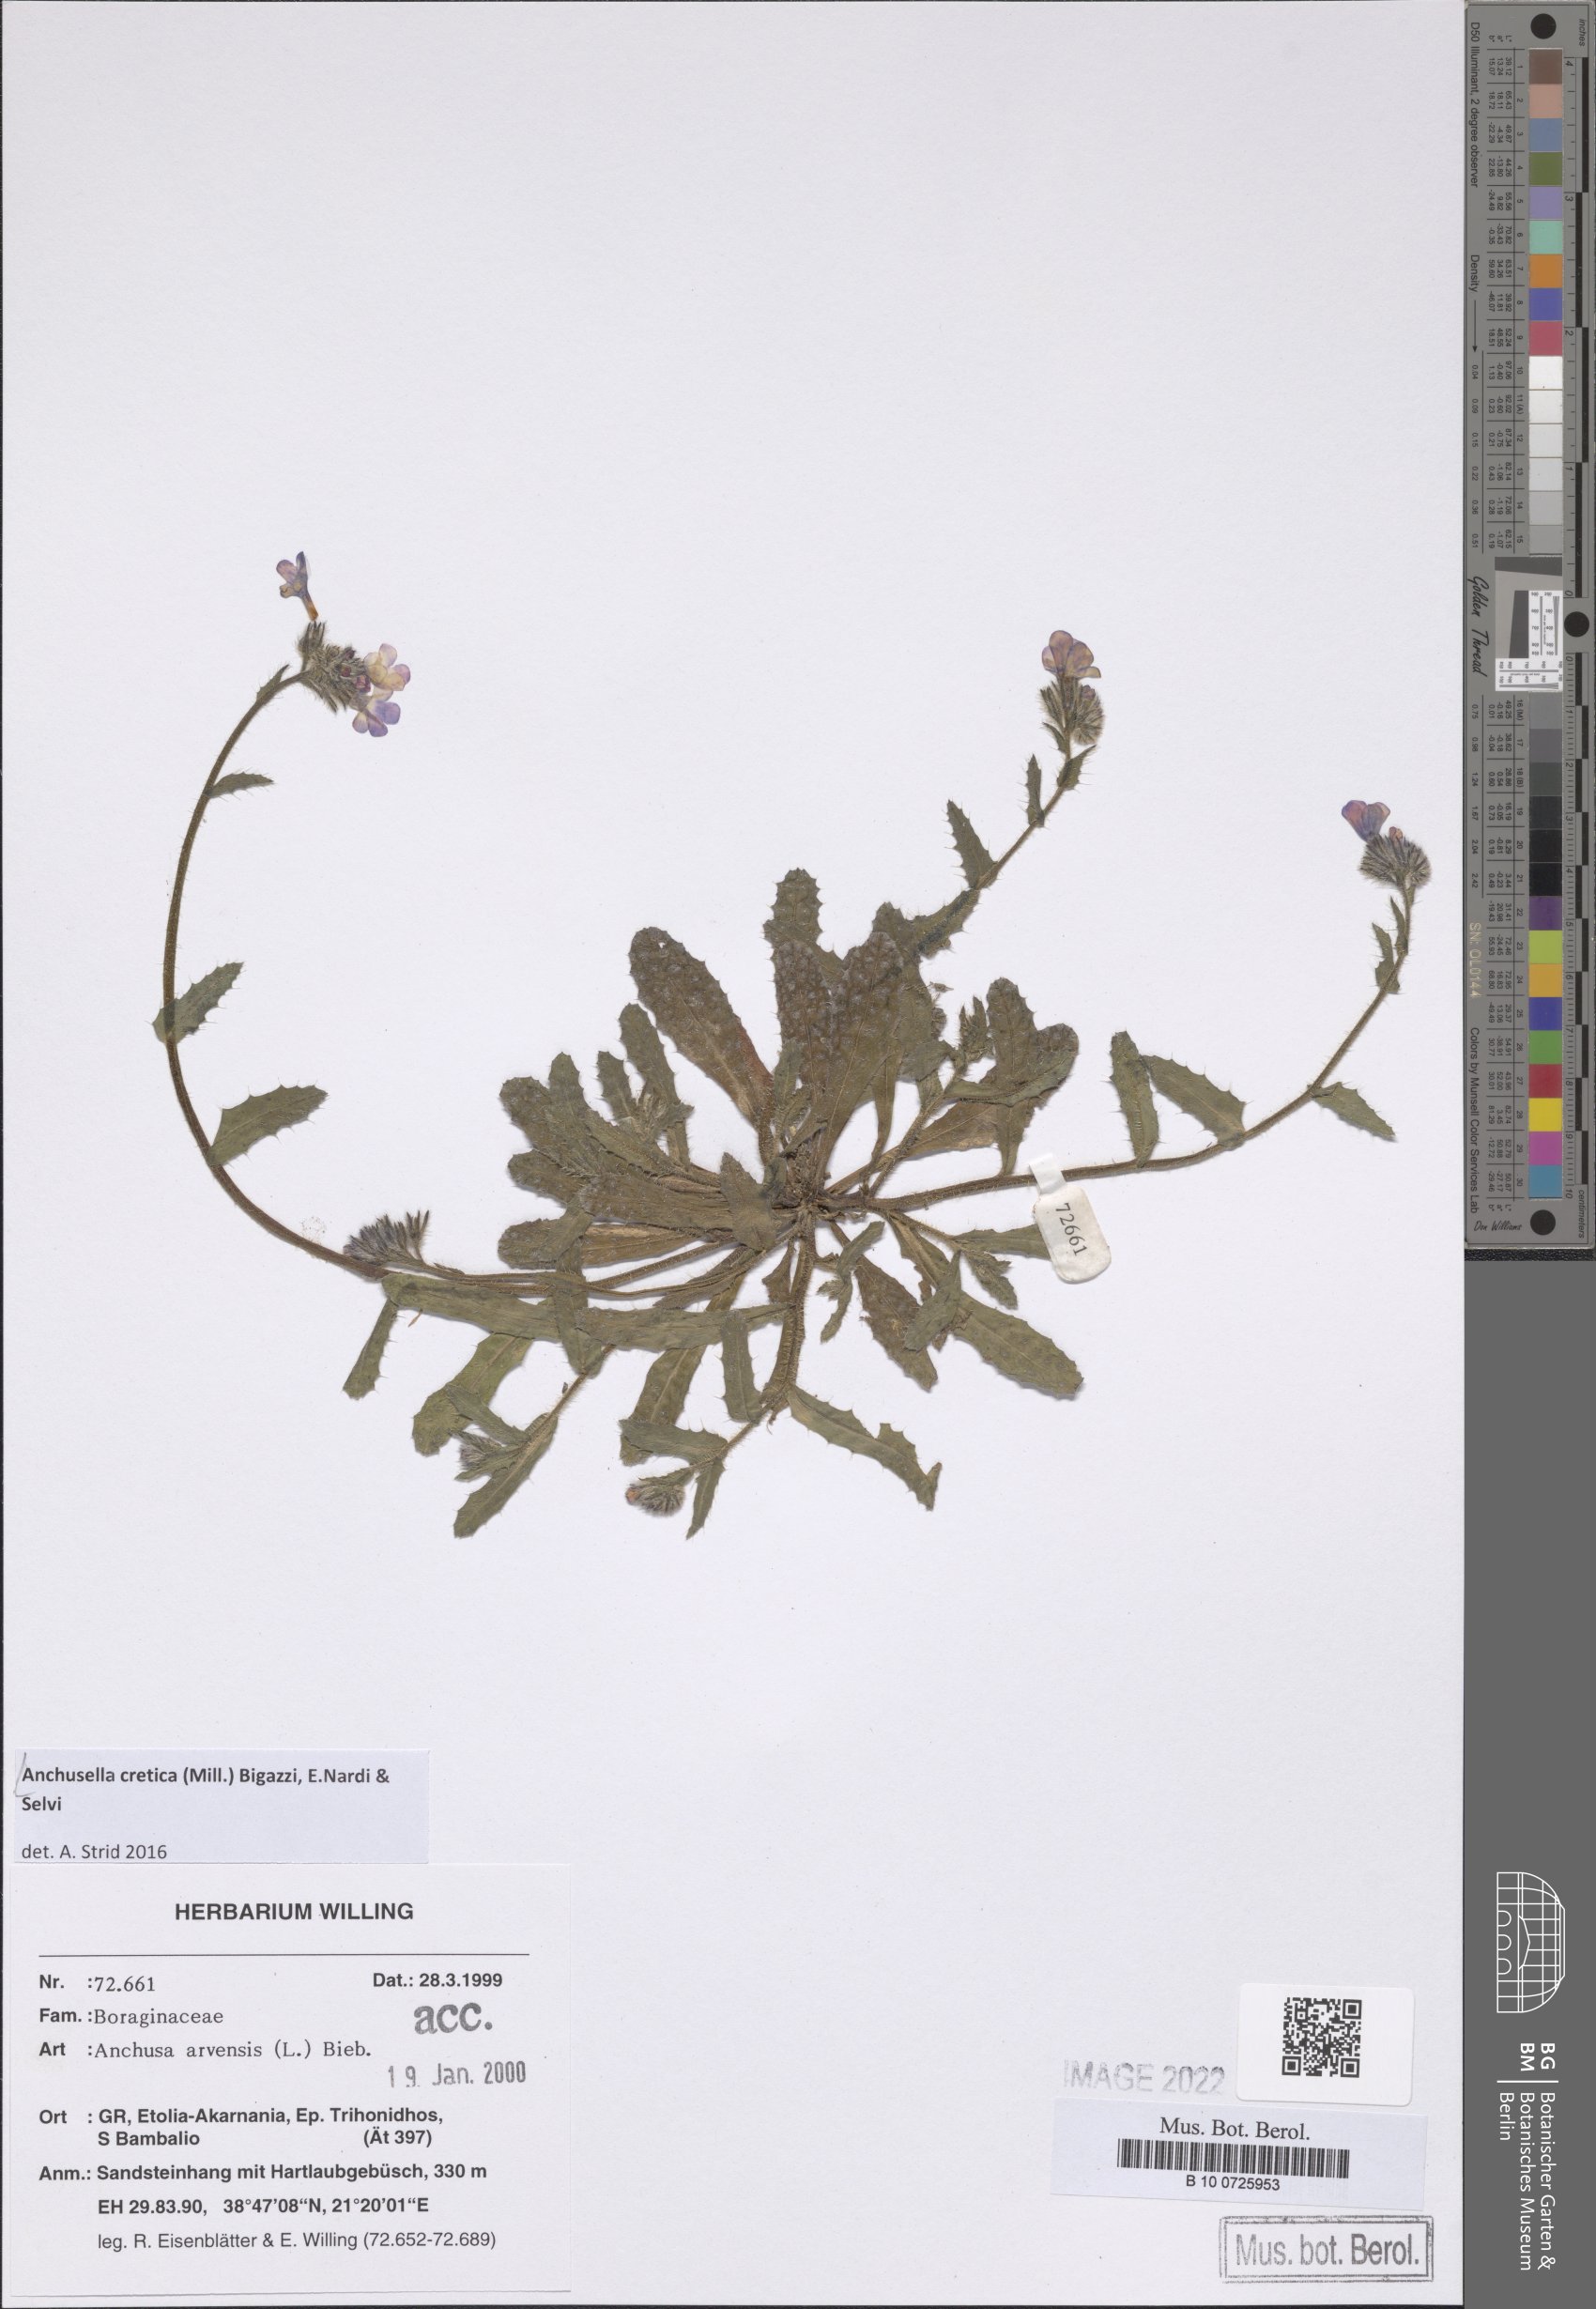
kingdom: Plantae
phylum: Tracheophyta
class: Magnoliopsida
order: Boraginales
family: Boraginaceae
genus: Anchusella
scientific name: Anchusella cretica
